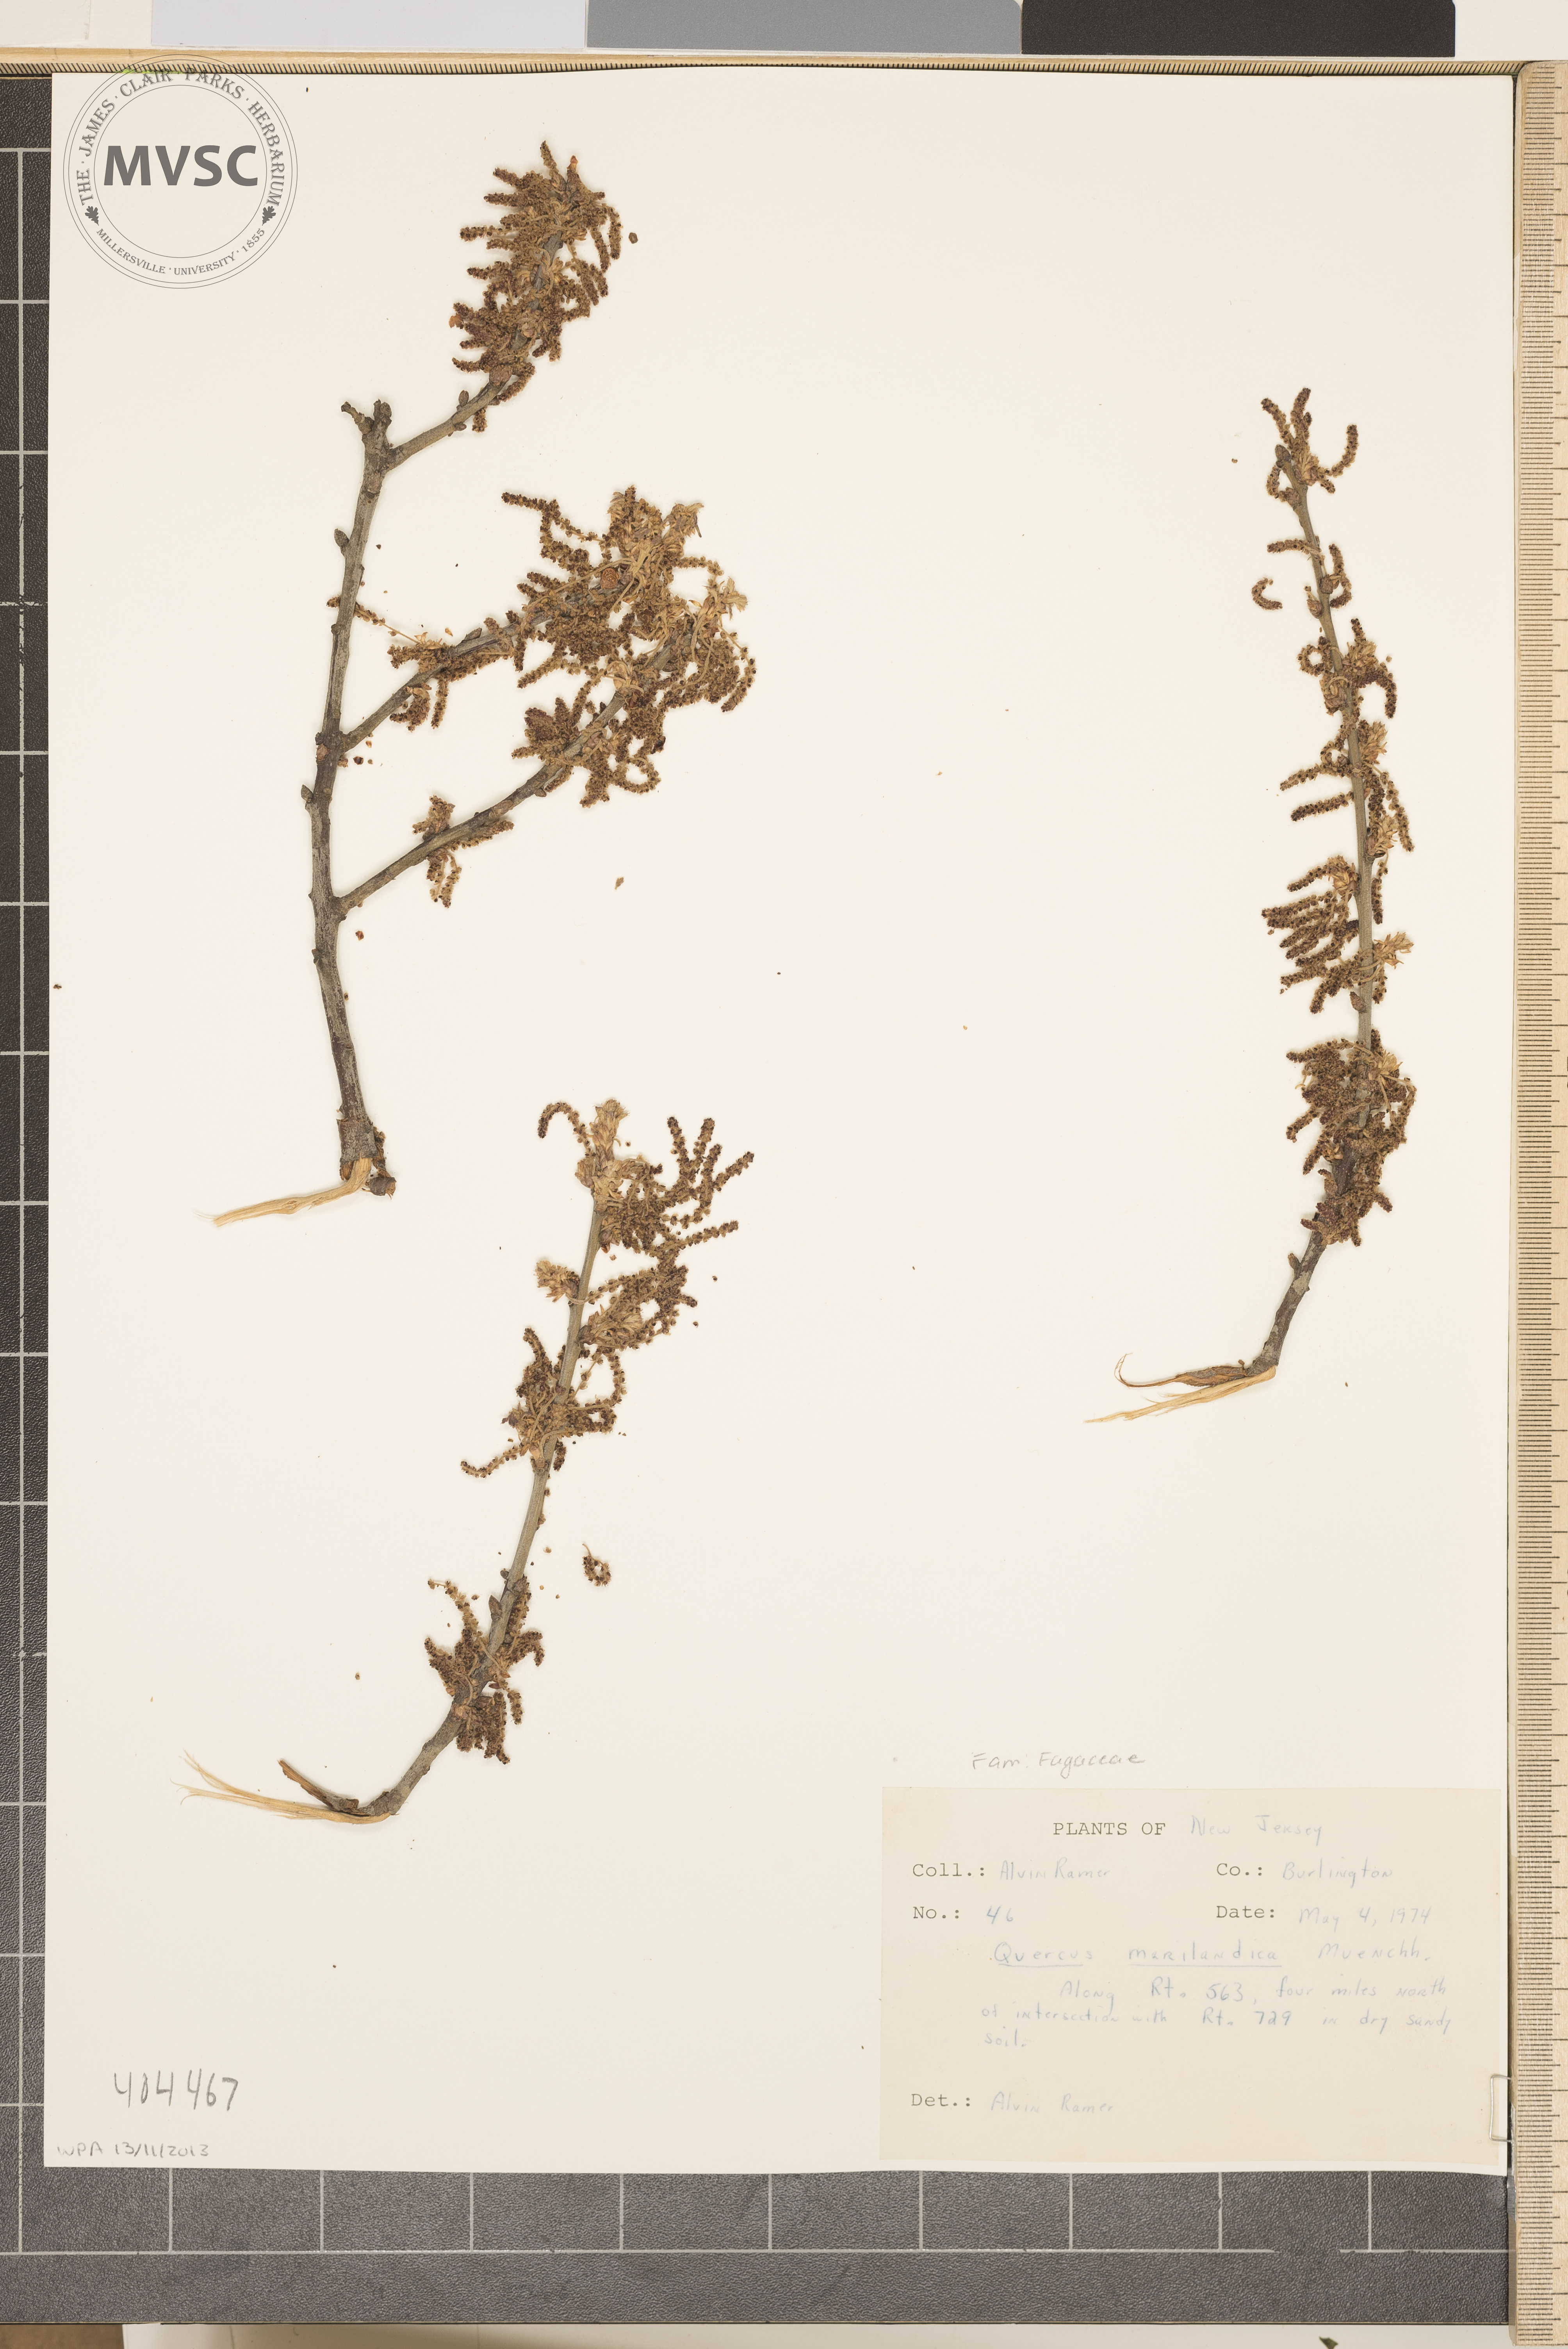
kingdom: Plantae
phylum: Tracheophyta
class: Magnoliopsida
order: Fagales
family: Fagaceae
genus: Quercus
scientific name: Quercus marilandica
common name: Blackjack oak
